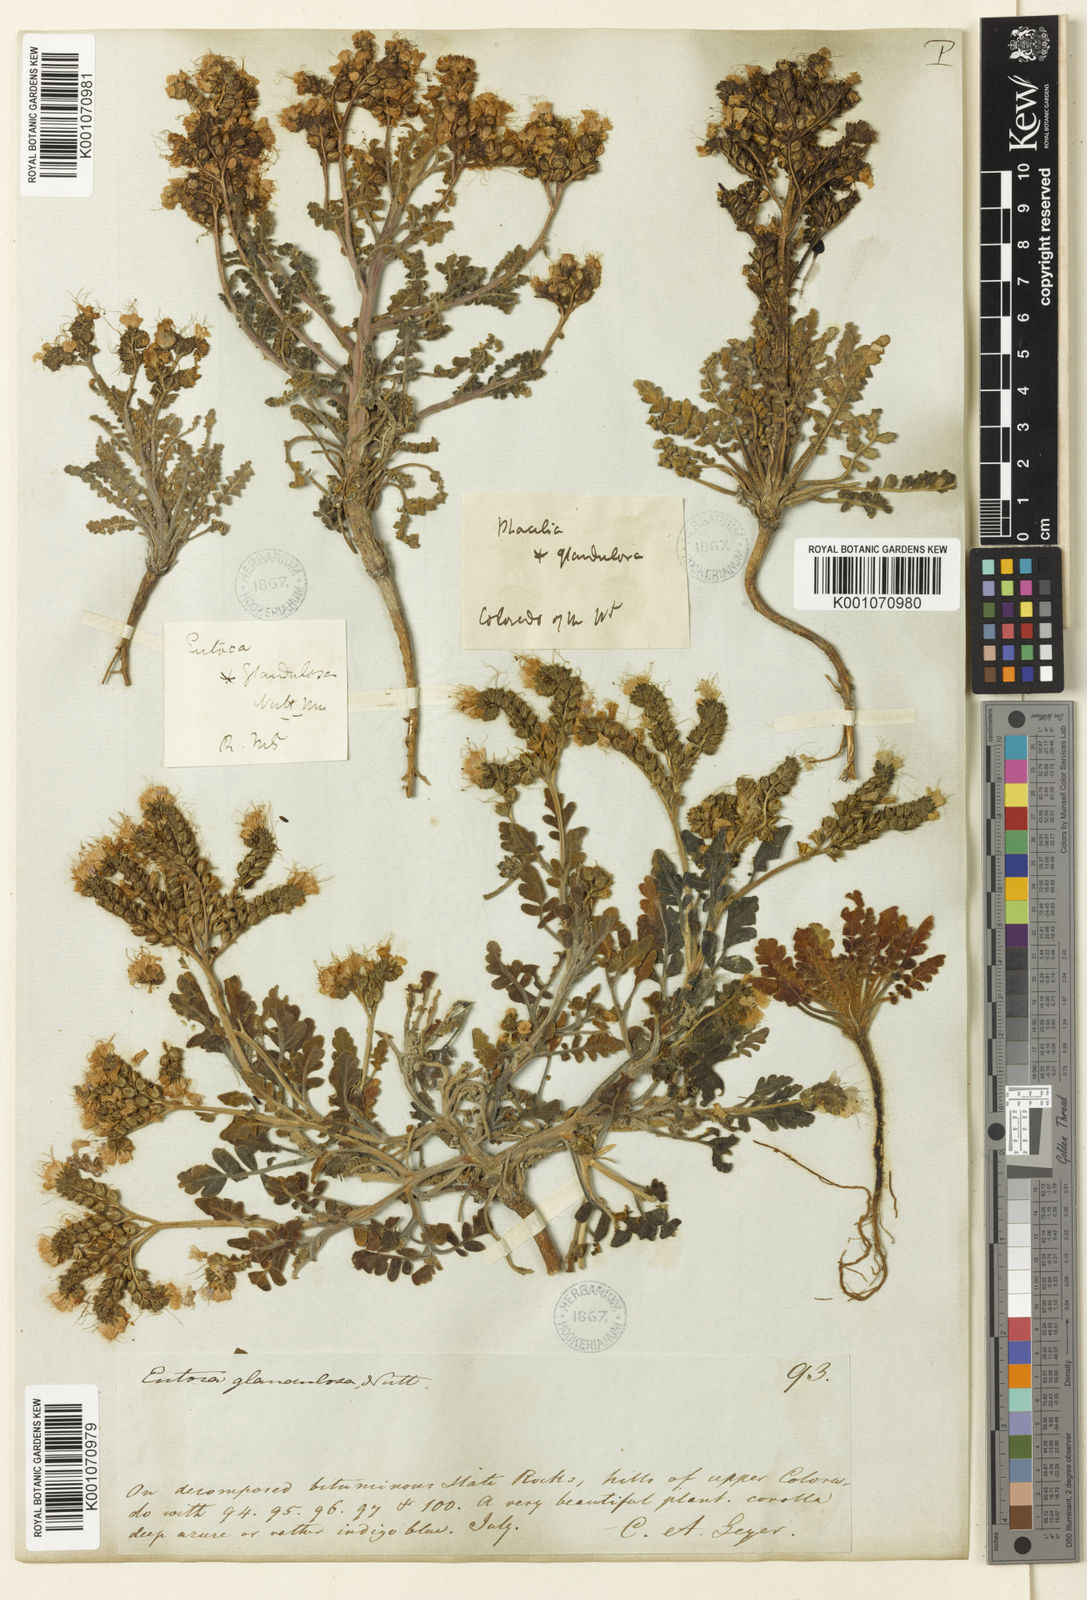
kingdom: Plantae
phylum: Tracheophyta
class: Magnoliopsida
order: Boraginales
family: Hydrophyllaceae
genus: Phacelia
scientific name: Phacelia
